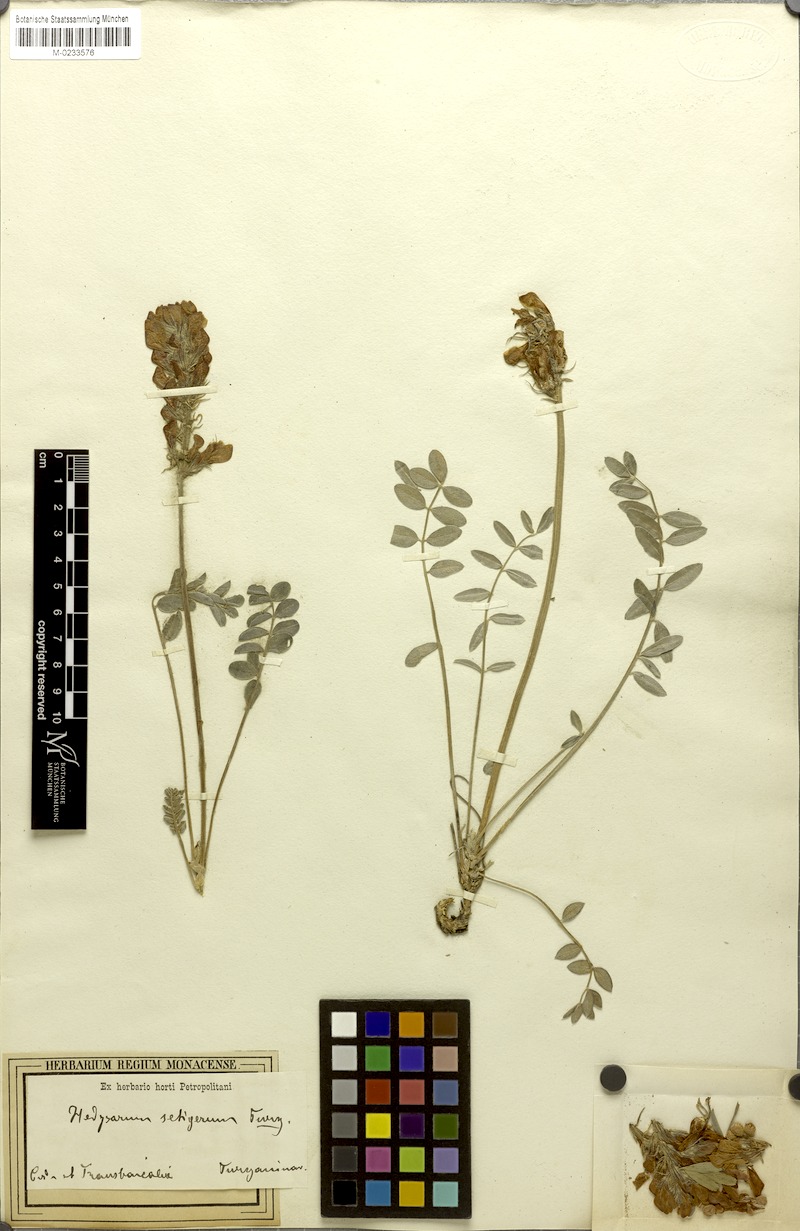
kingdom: Plantae
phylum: Tracheophyta
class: Magnoliopsida
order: Fabales
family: Fabaceae
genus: Hedysarum
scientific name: Hedysarum setigerum
